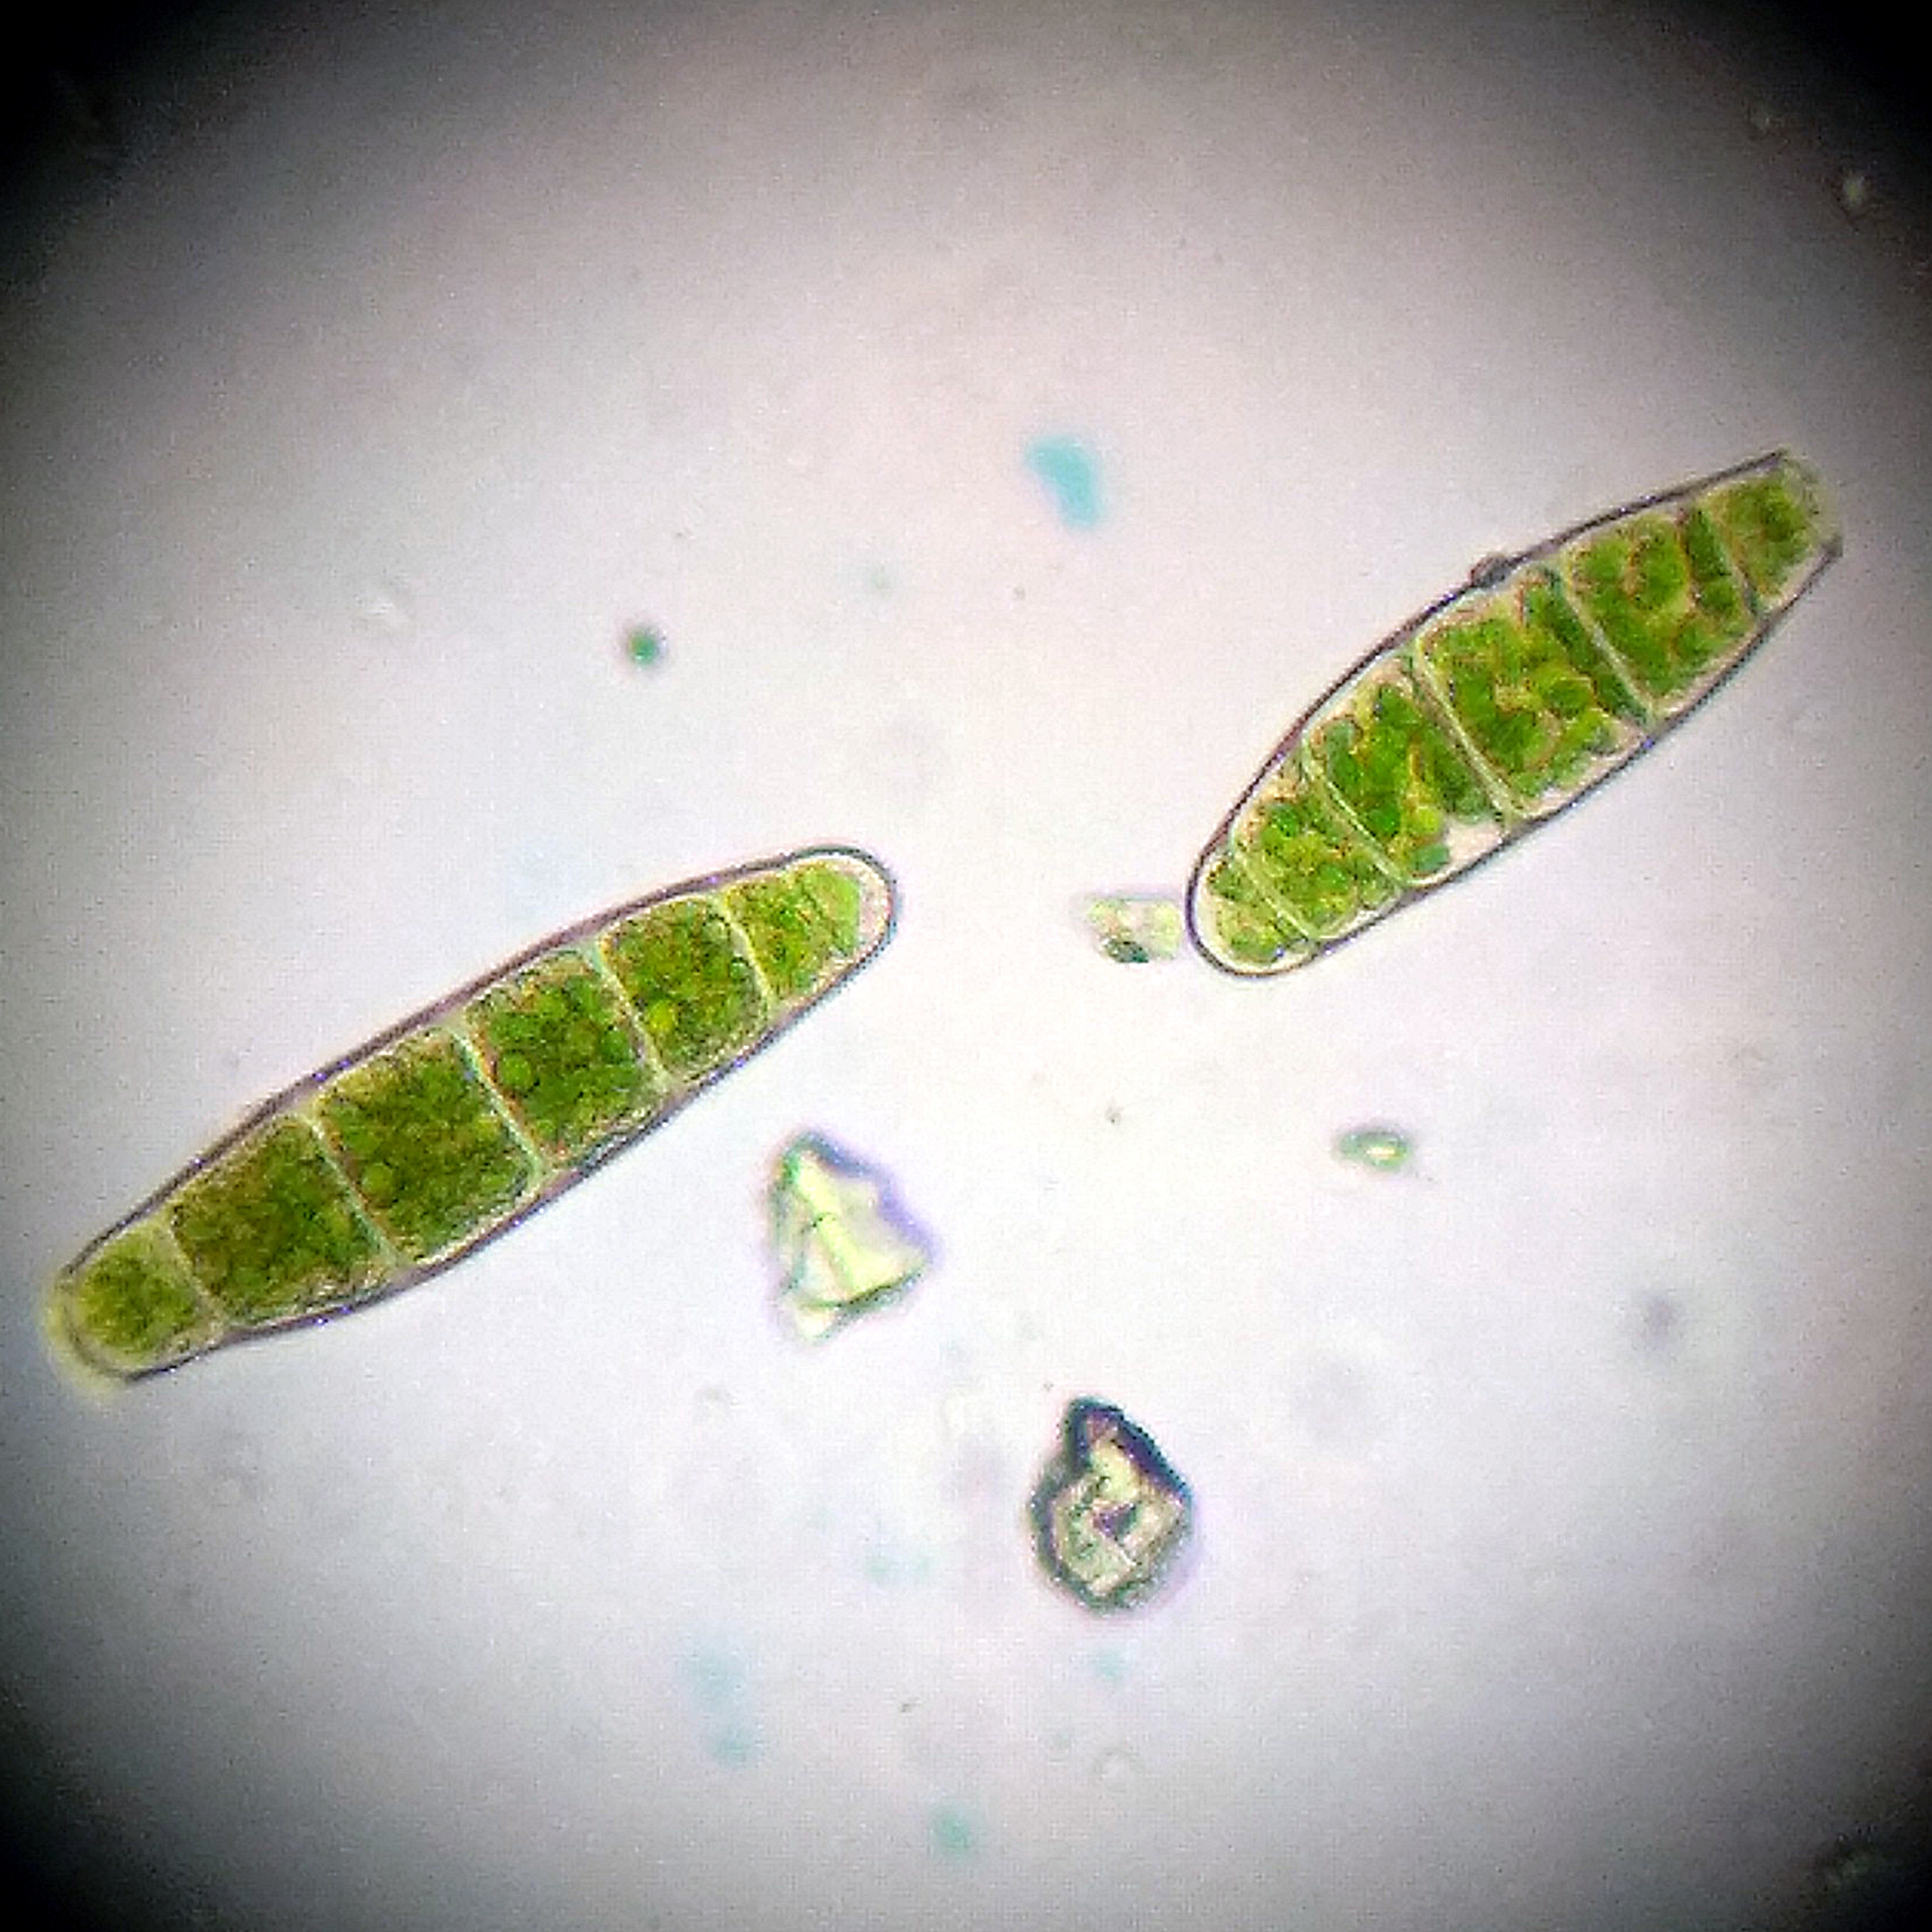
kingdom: Plantae
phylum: Bryophyta
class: Bryopsida
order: Orthotrichales
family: Orthotrichaceae
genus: Zygodon
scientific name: Zygodon conoideus
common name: Tand-køllemos
